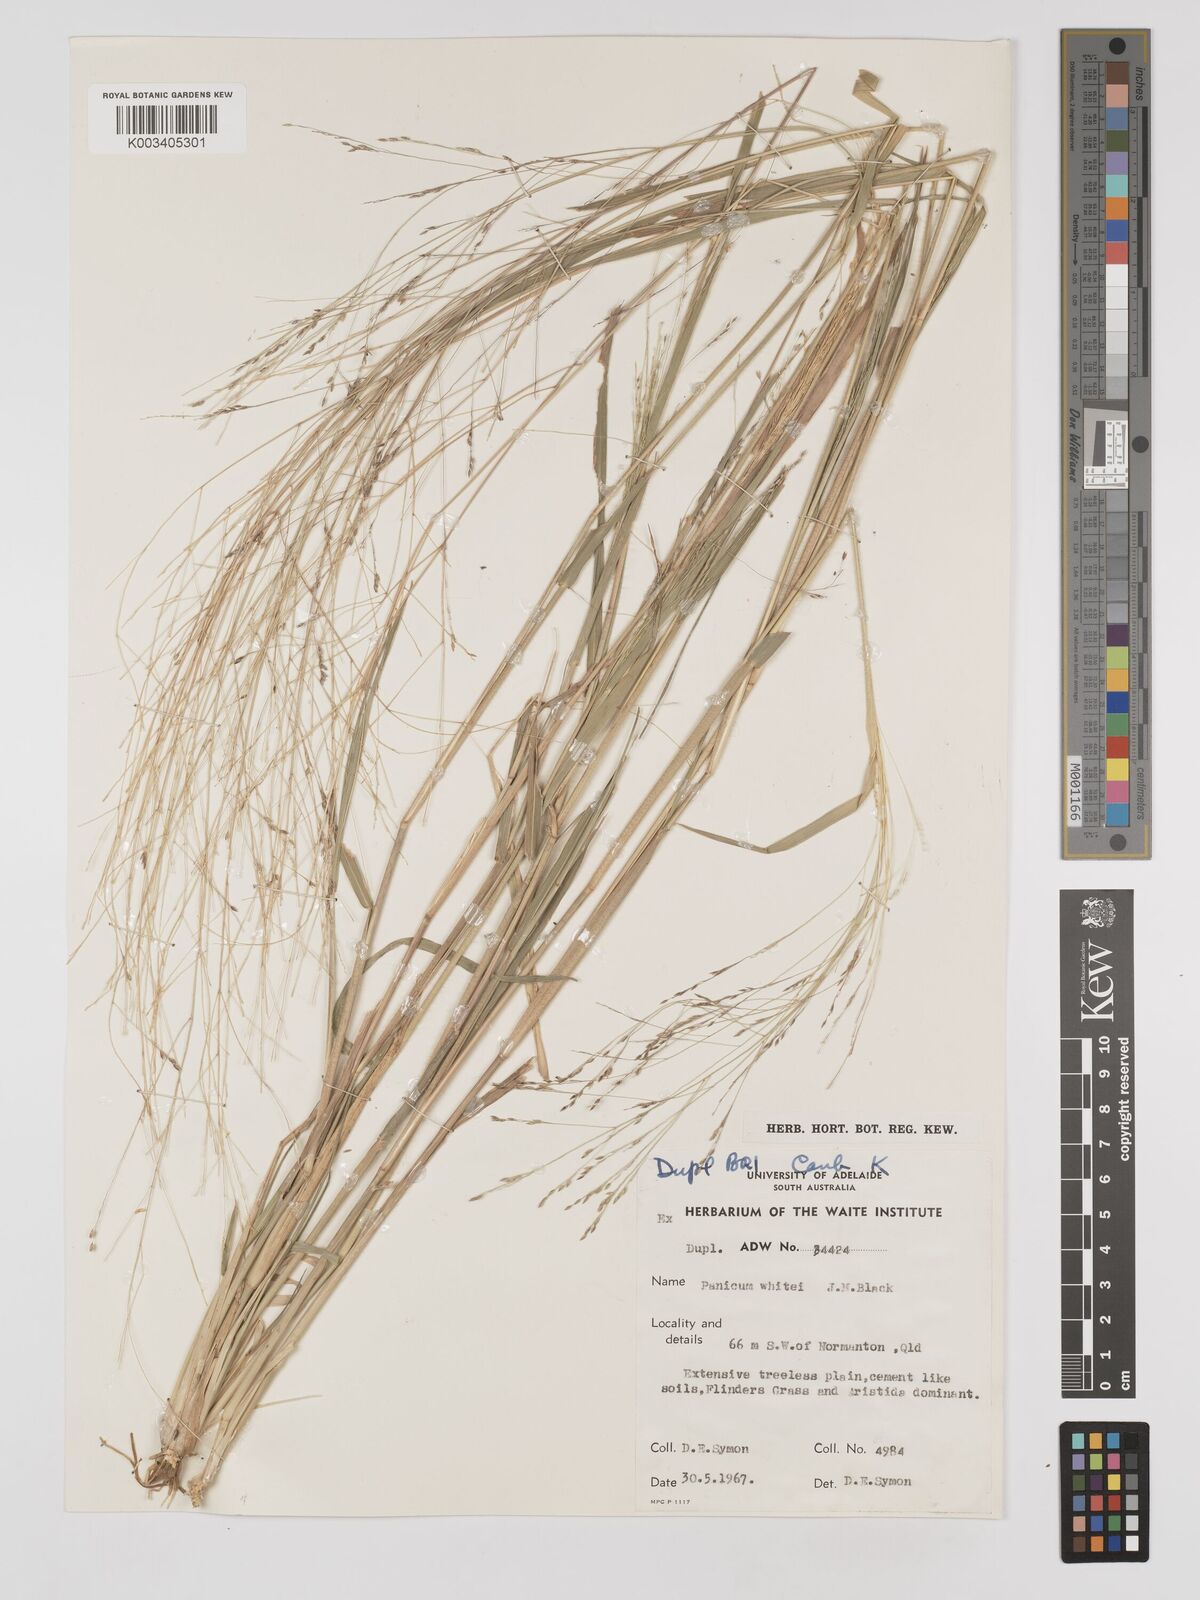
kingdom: Plantae
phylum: Tracheophyta
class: Liliopsida
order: Poales
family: Poaceae
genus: Panicum
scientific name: Panicum trichoides
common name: Tickle grass
